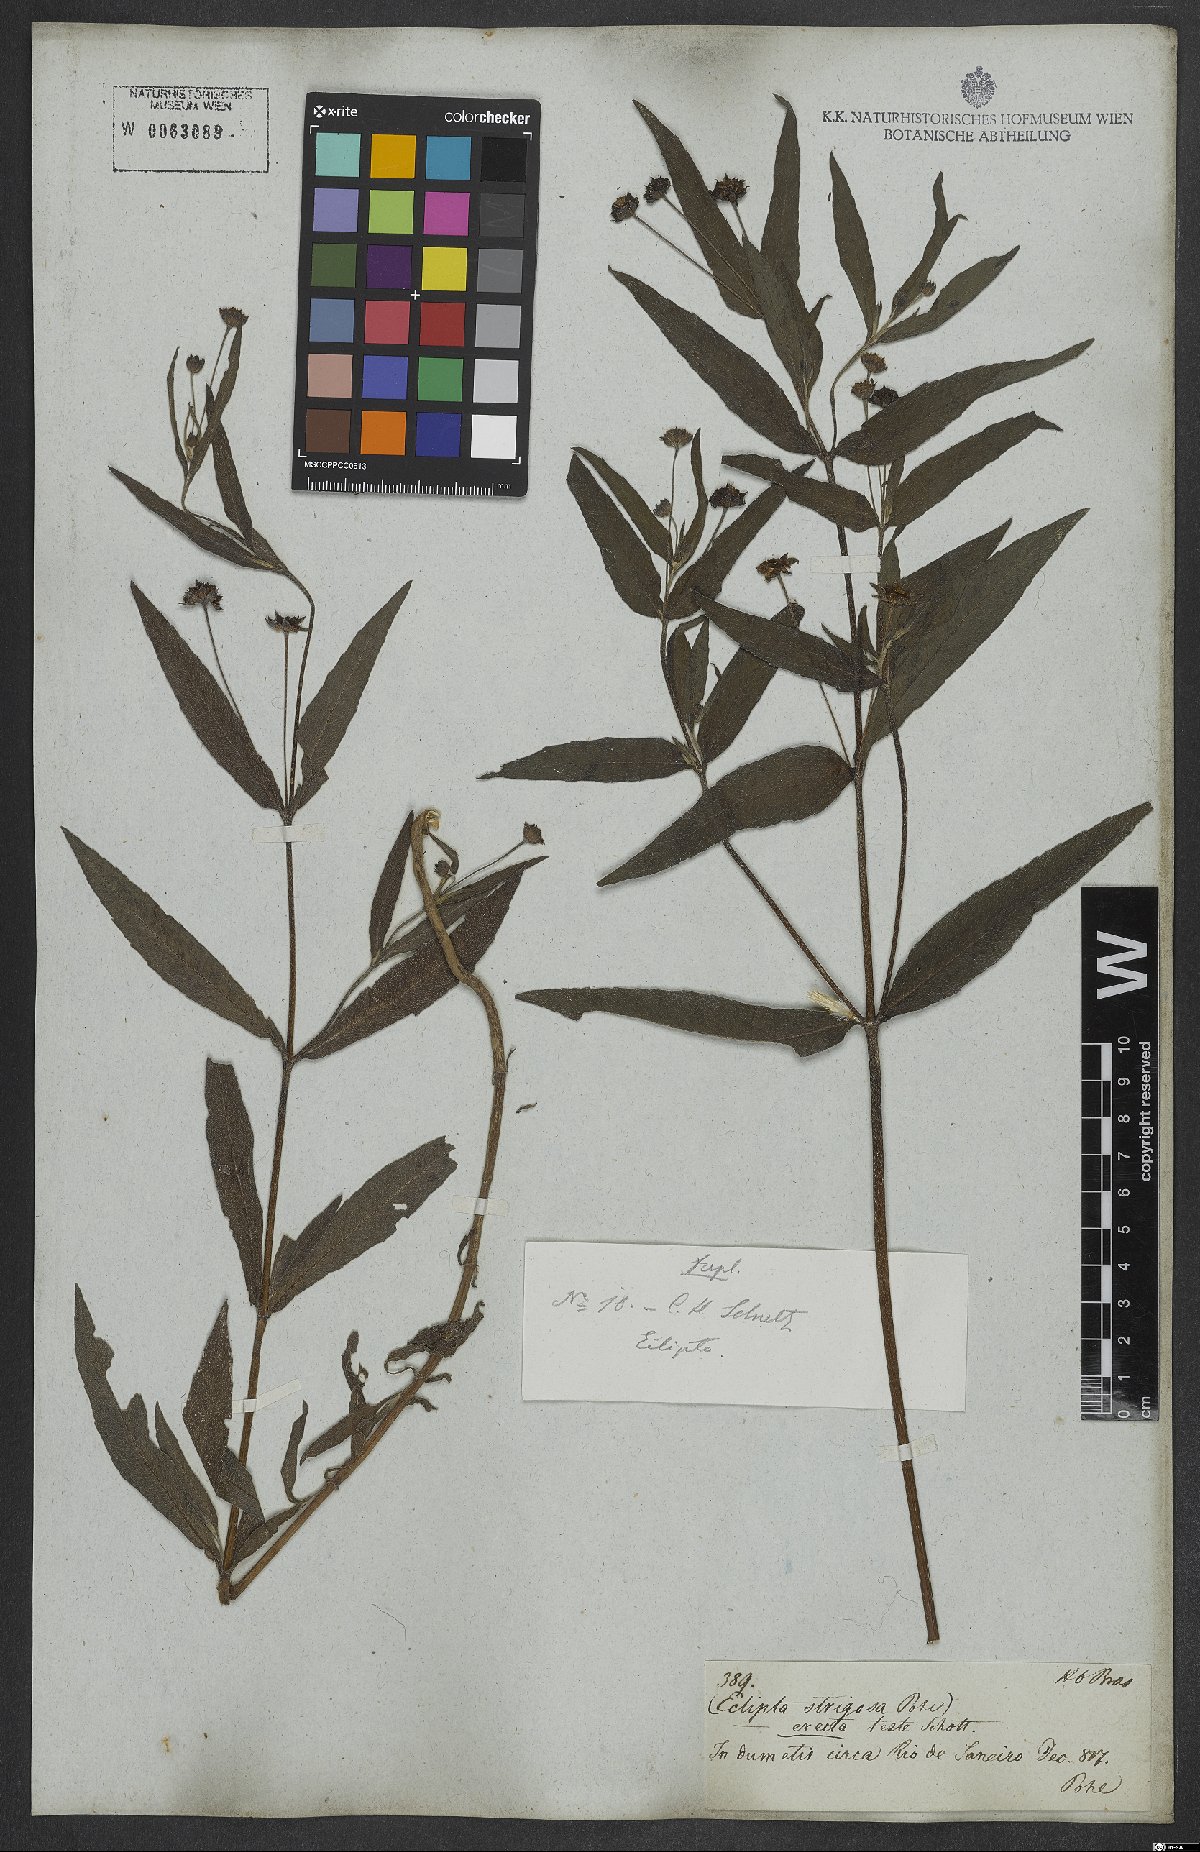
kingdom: Plantae
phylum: Tracheophyta
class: Magnoliopsida
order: Asterales
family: Asteraceae
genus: Eclipta
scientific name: Eclipta alba
